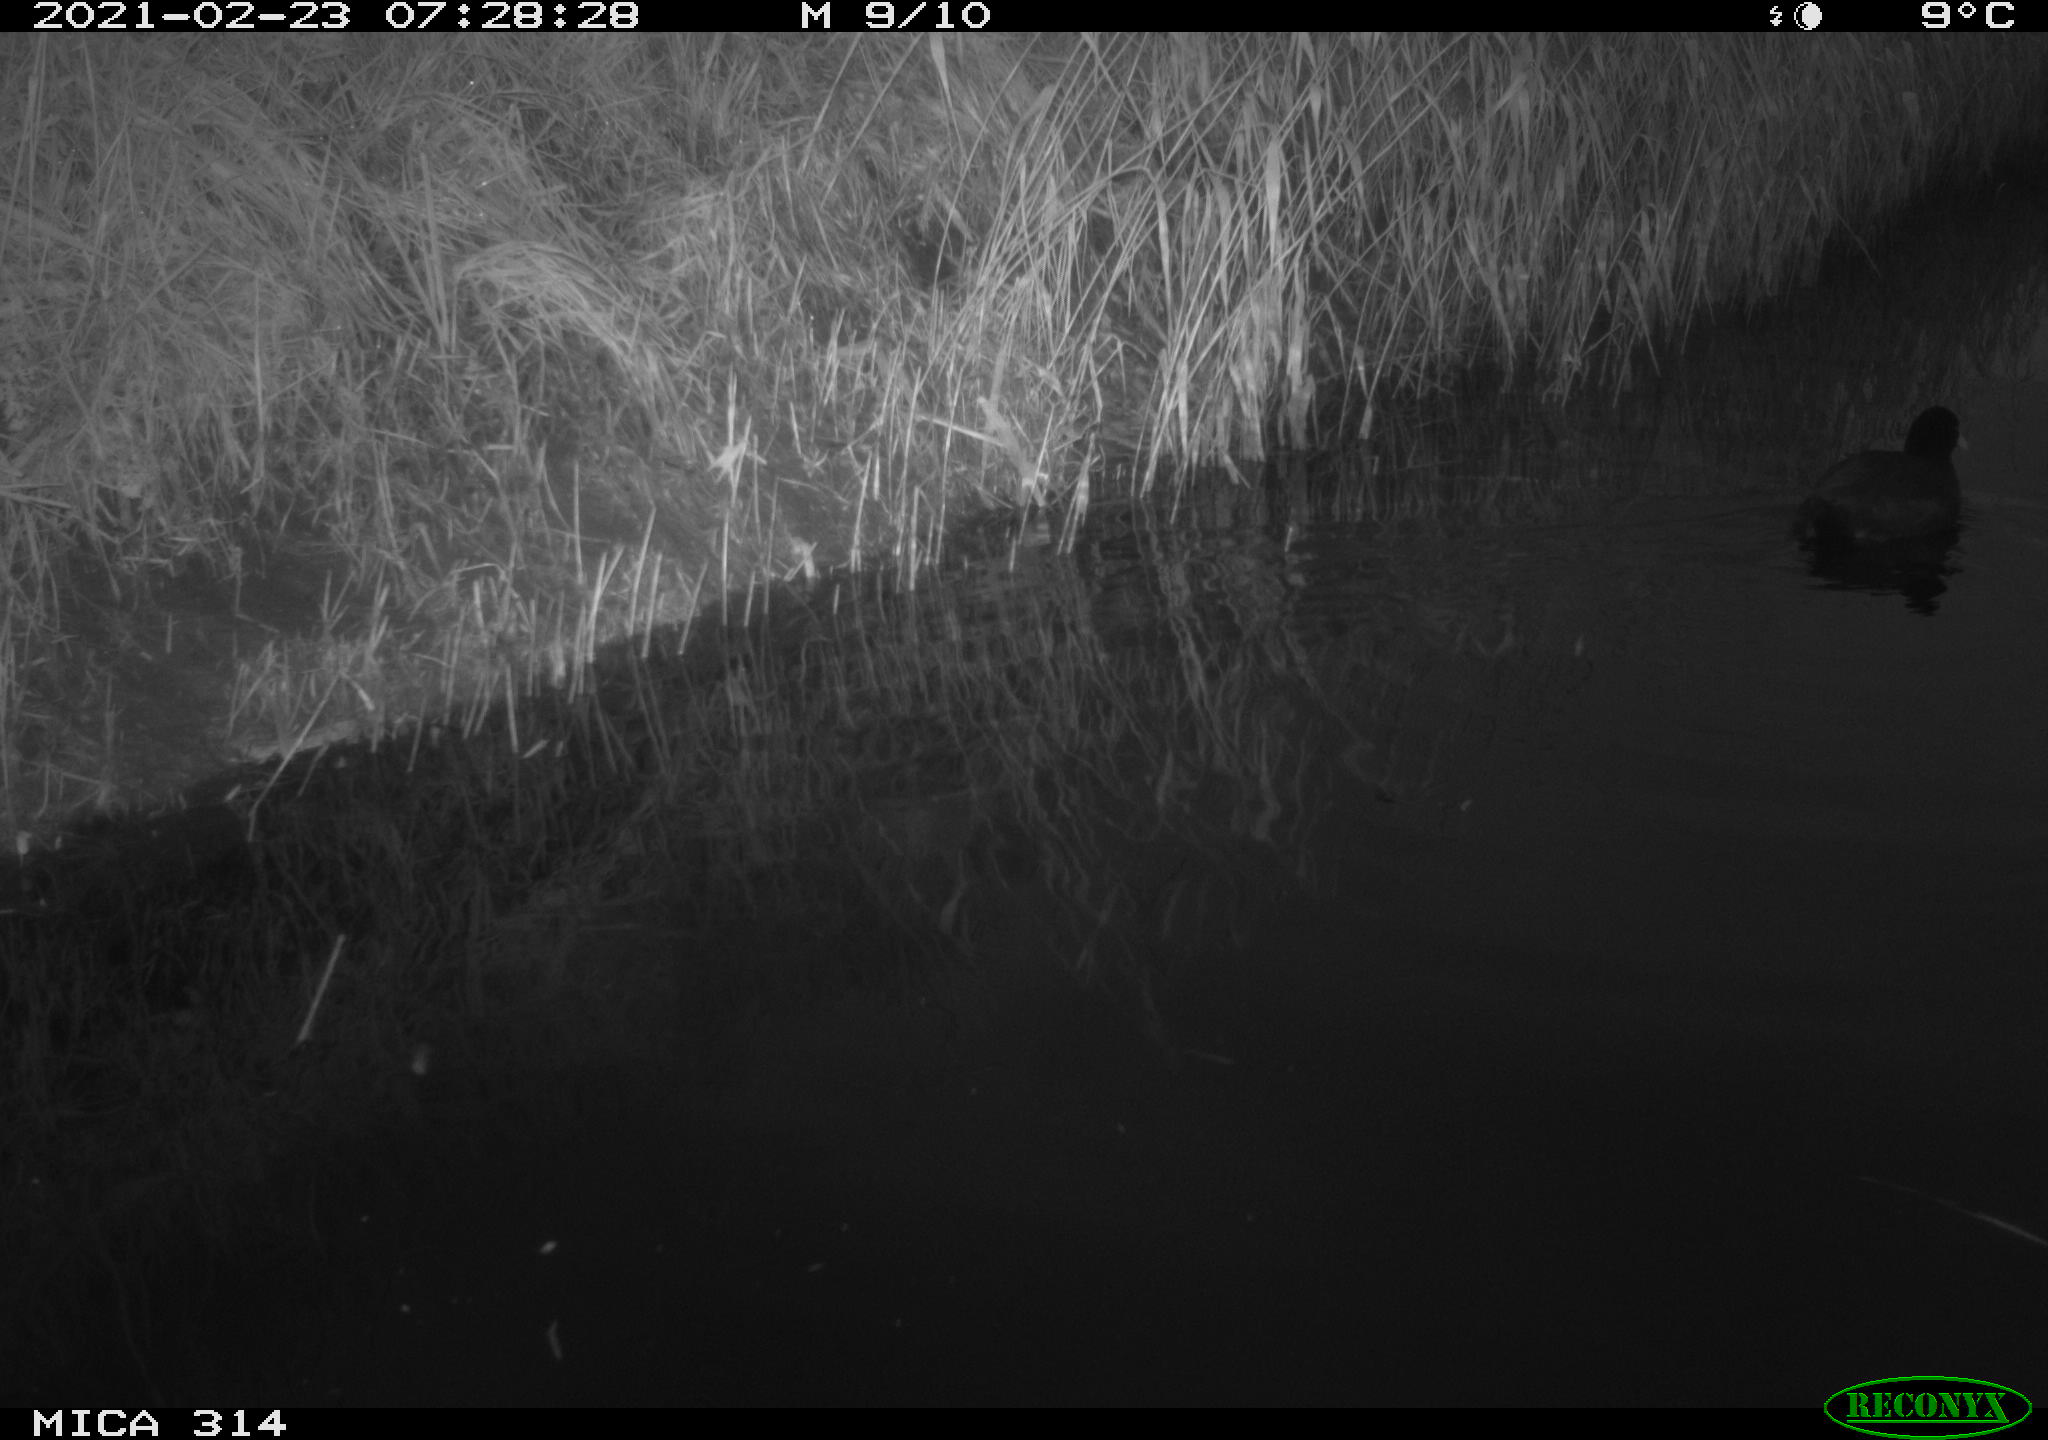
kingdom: Animalia
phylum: Chordata
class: Aves
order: Gruiformes
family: Rallidae
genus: Gallinula
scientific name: Gallinula chloropus
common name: Common moorhen
